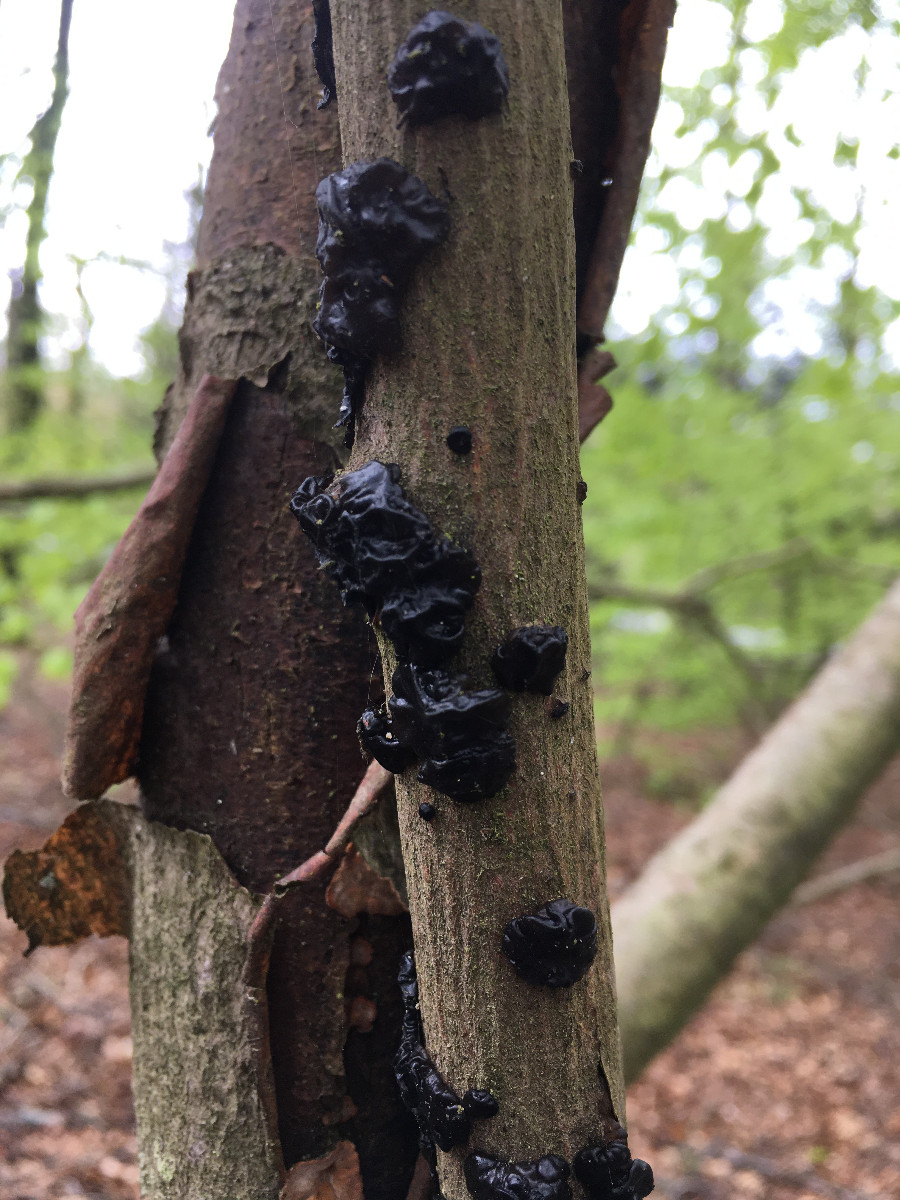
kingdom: Fungi
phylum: Basidiomycota
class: Agaricomycetes
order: Auriculariales
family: Auriculariaceae
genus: Exidia
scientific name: Exidia nigricans
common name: almindelig bævretop
